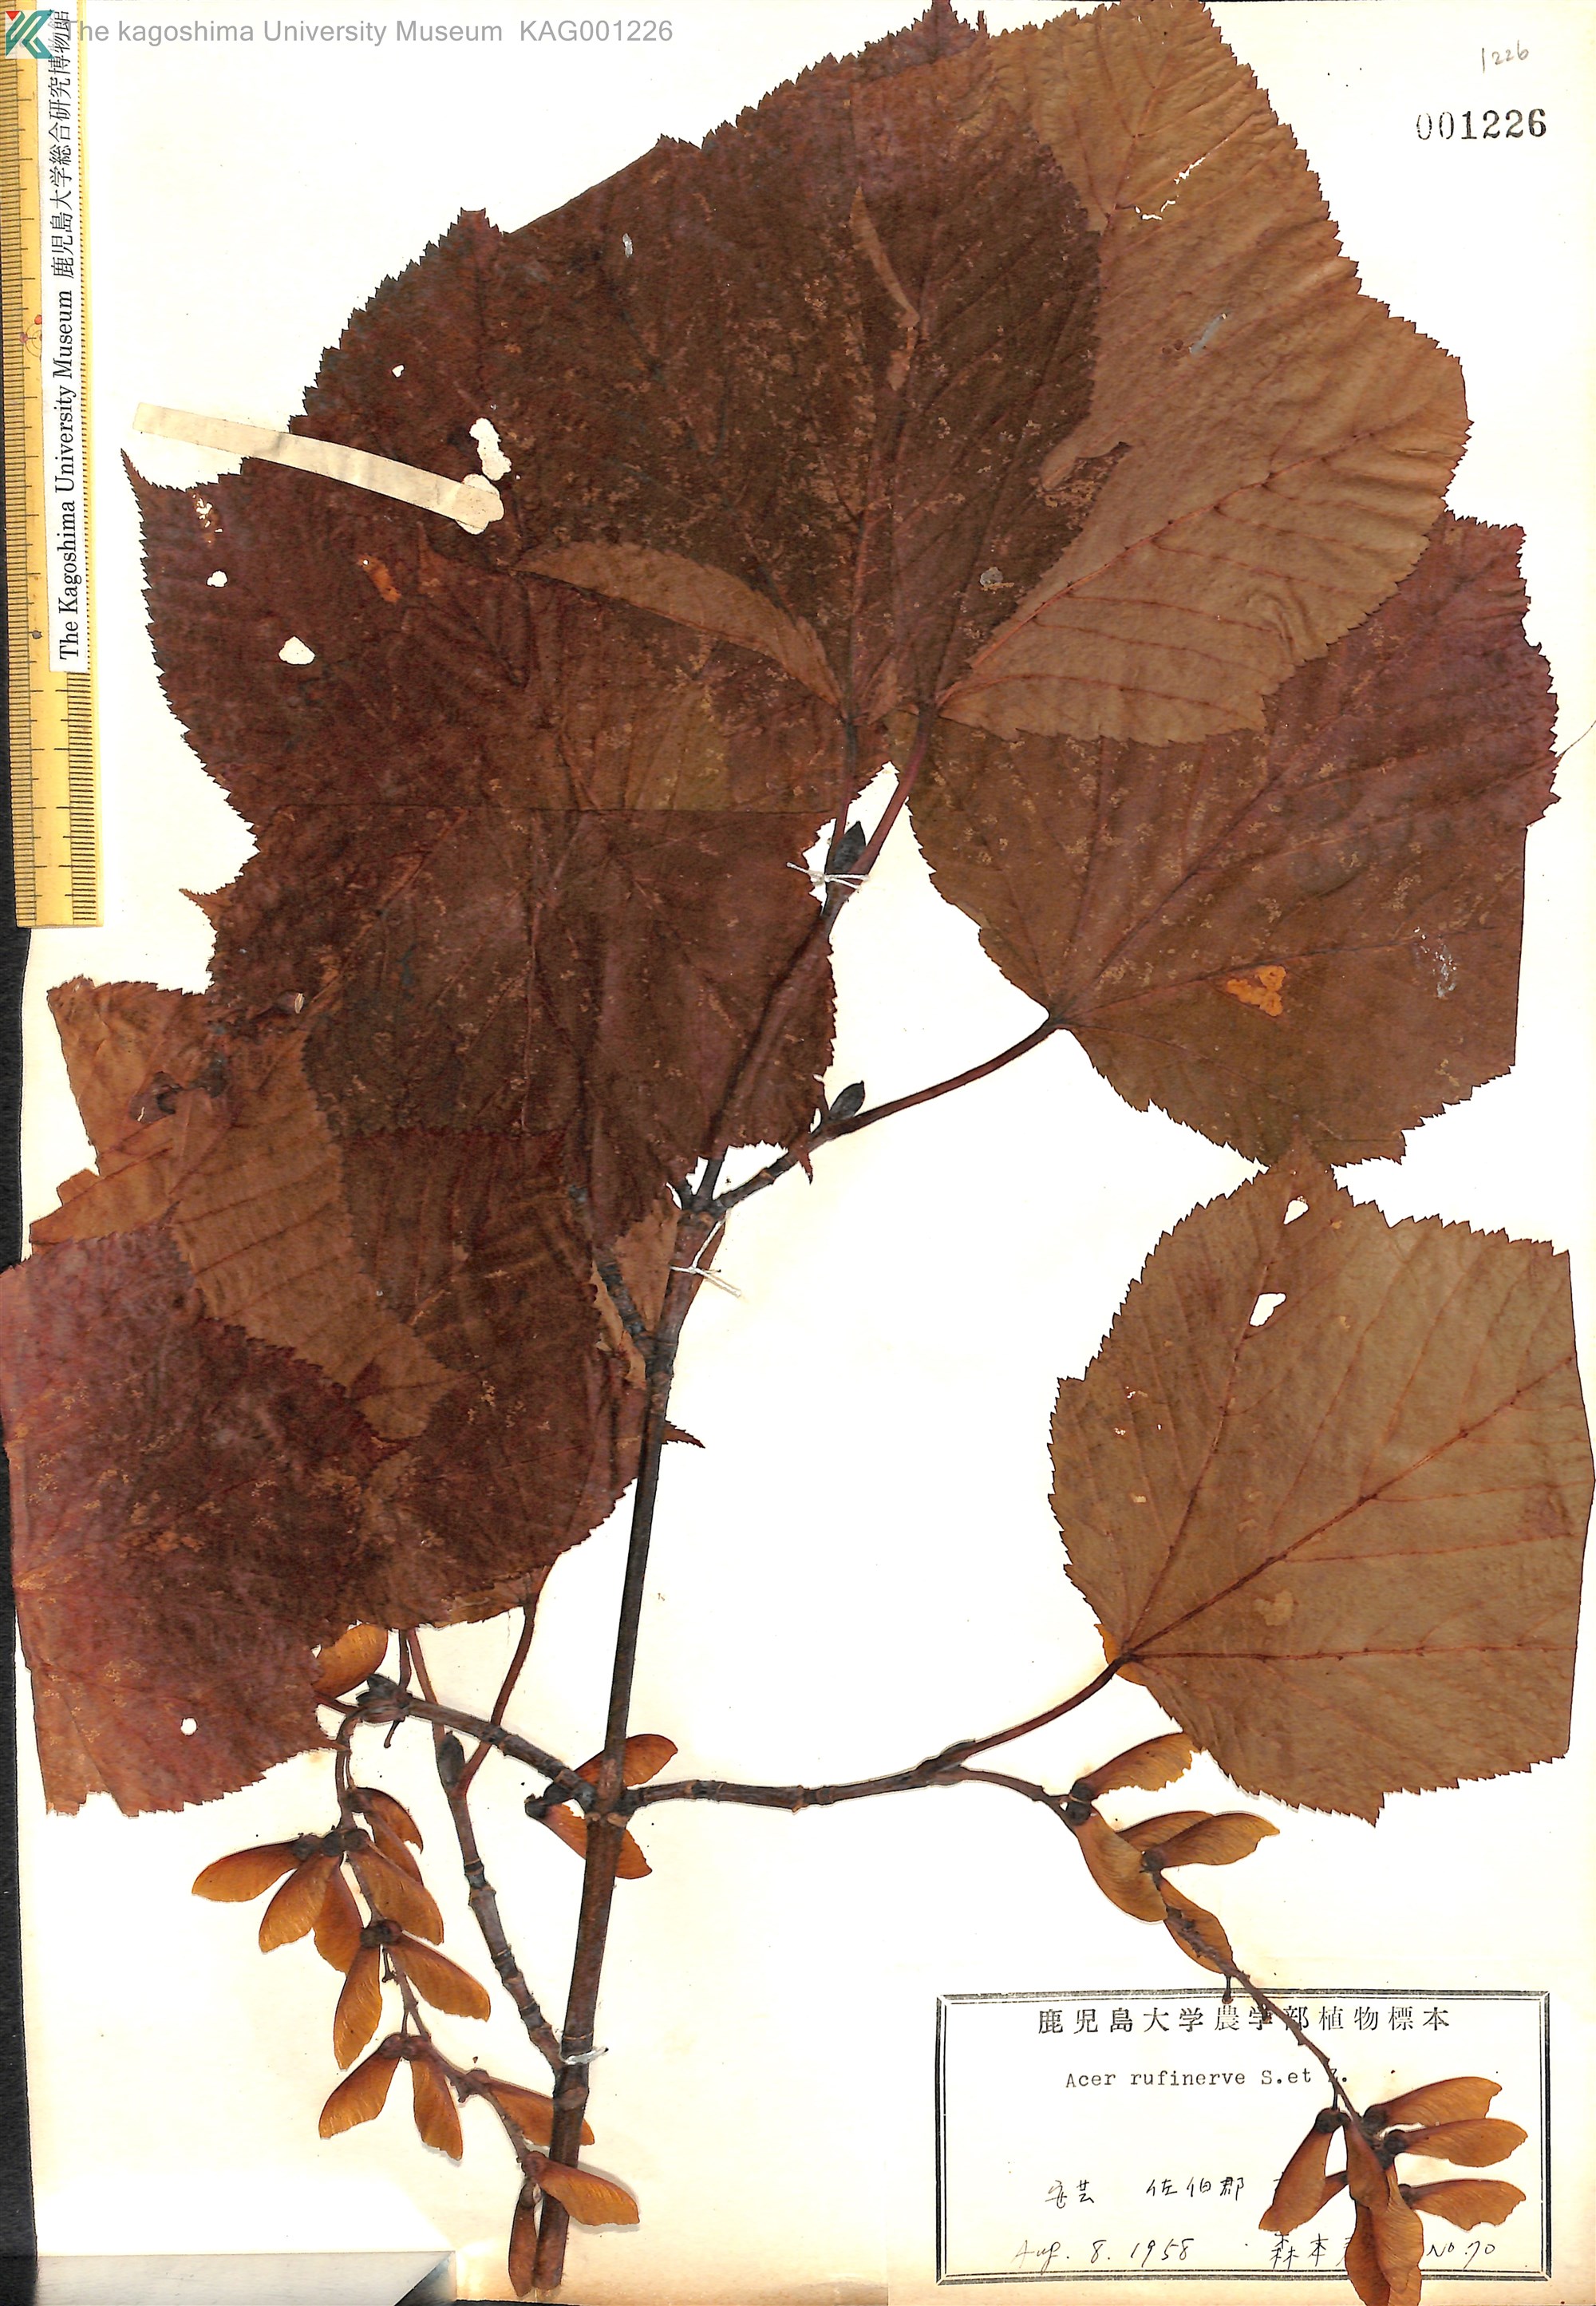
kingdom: Plantae
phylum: Tracheophyta
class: Magnoliopsida
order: Sapindales
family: Sapindaceae
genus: Acer
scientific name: Acer rufinerve
